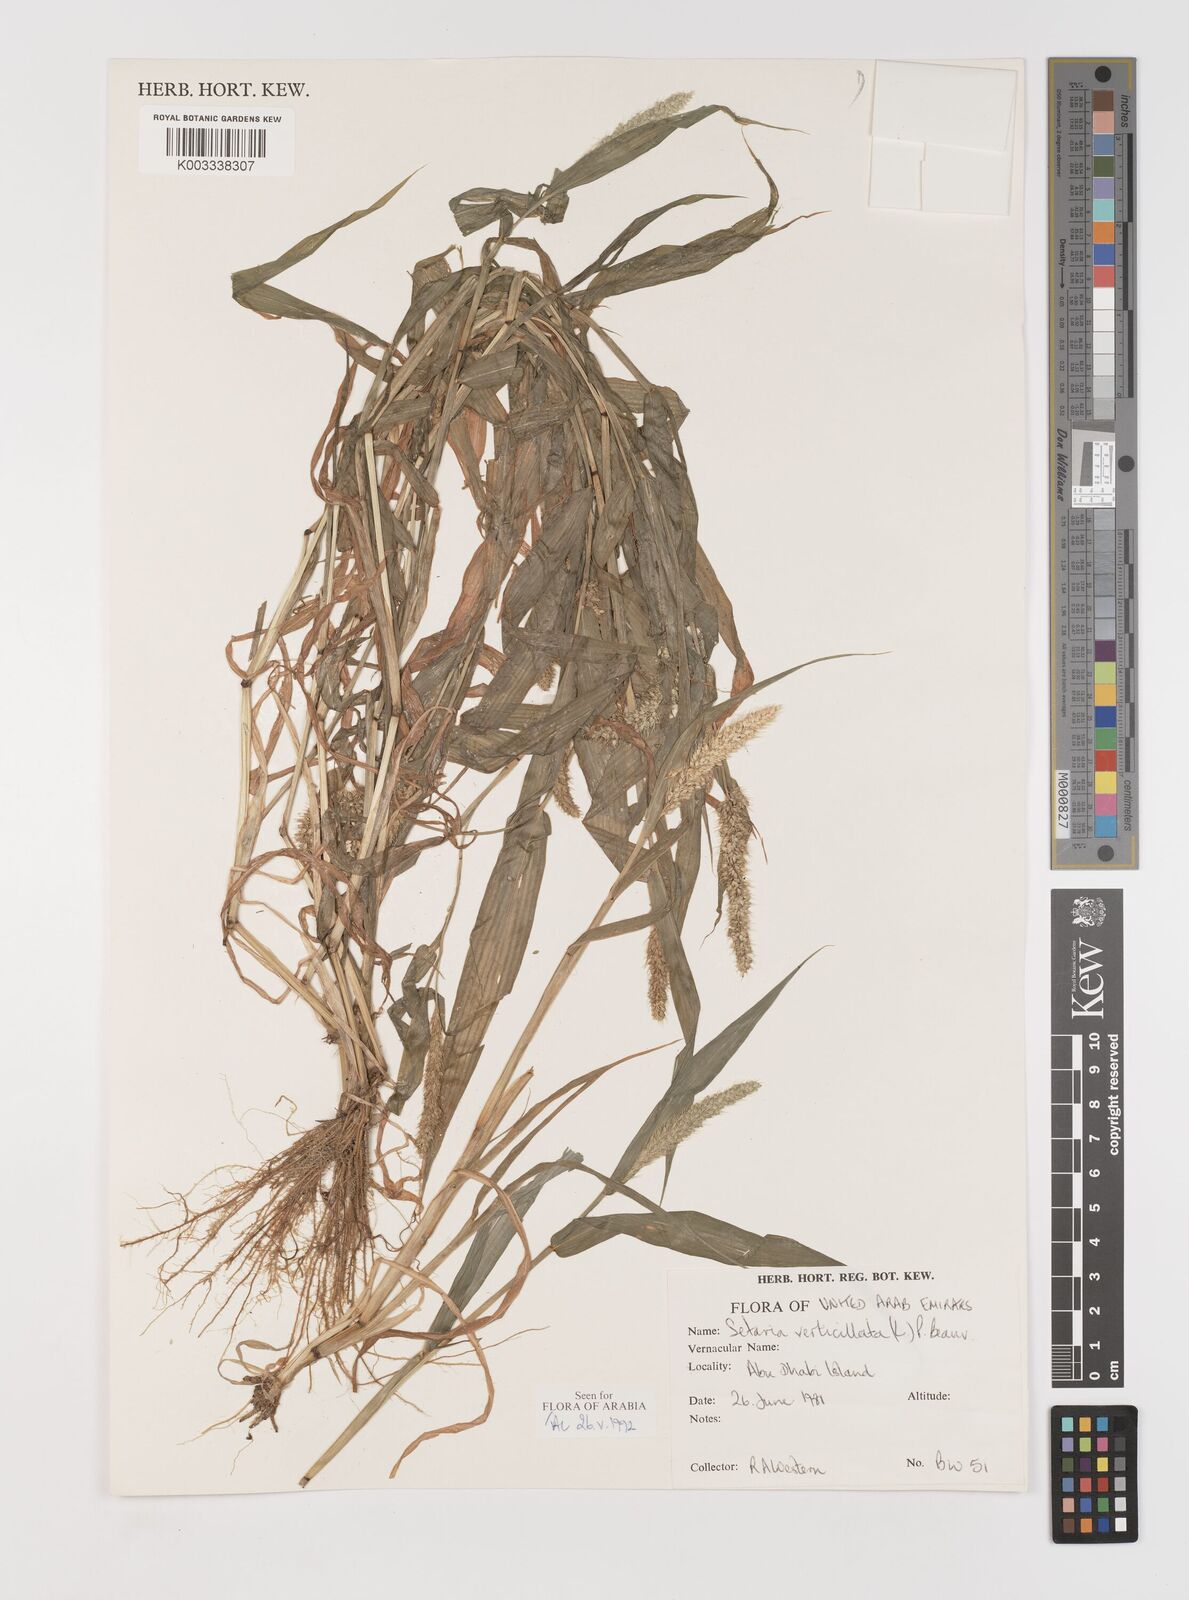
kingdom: Plantae
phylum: Tracheophyta
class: Liliopsida
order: Poales
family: Poaceae
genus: Setaria
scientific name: Setaria grisebachii
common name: Grisebach's bristle grass
